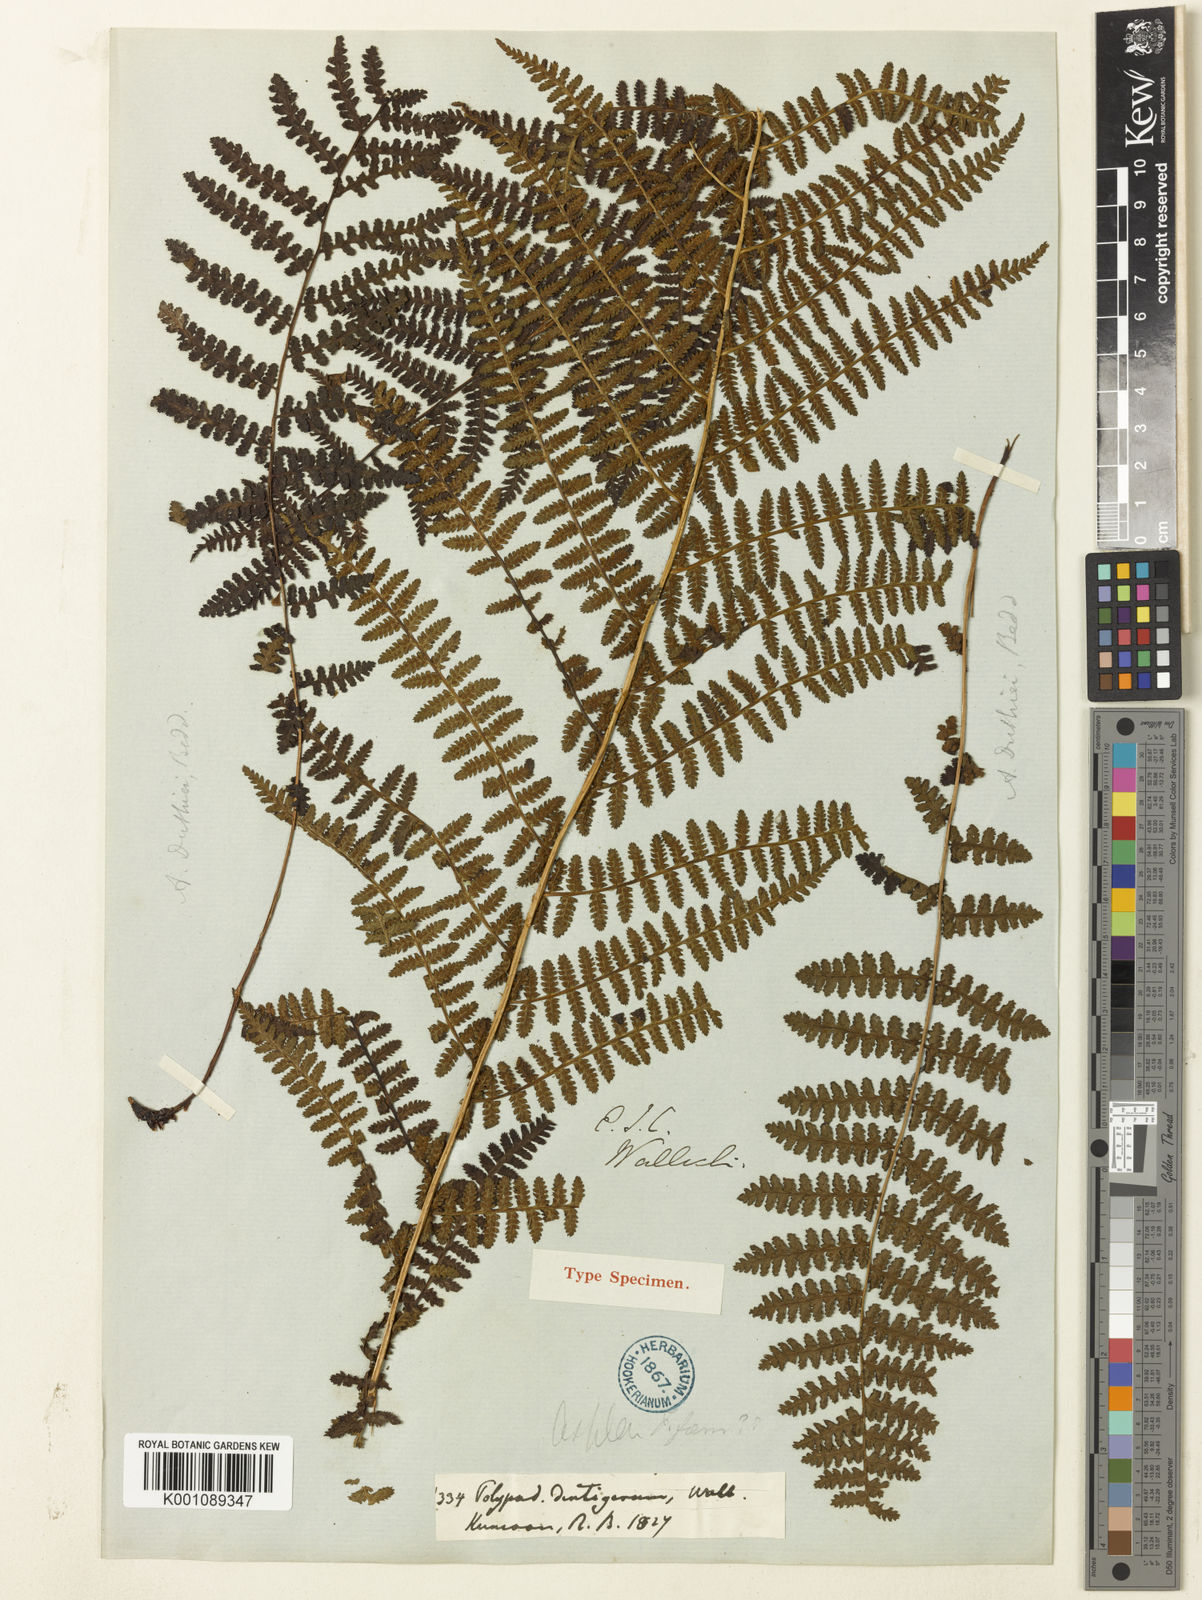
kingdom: Plantae
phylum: Tracheophyta
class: Polypodiopsida
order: Polypodiales
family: Athyriaceae
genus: Athyrium
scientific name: Athyrium
